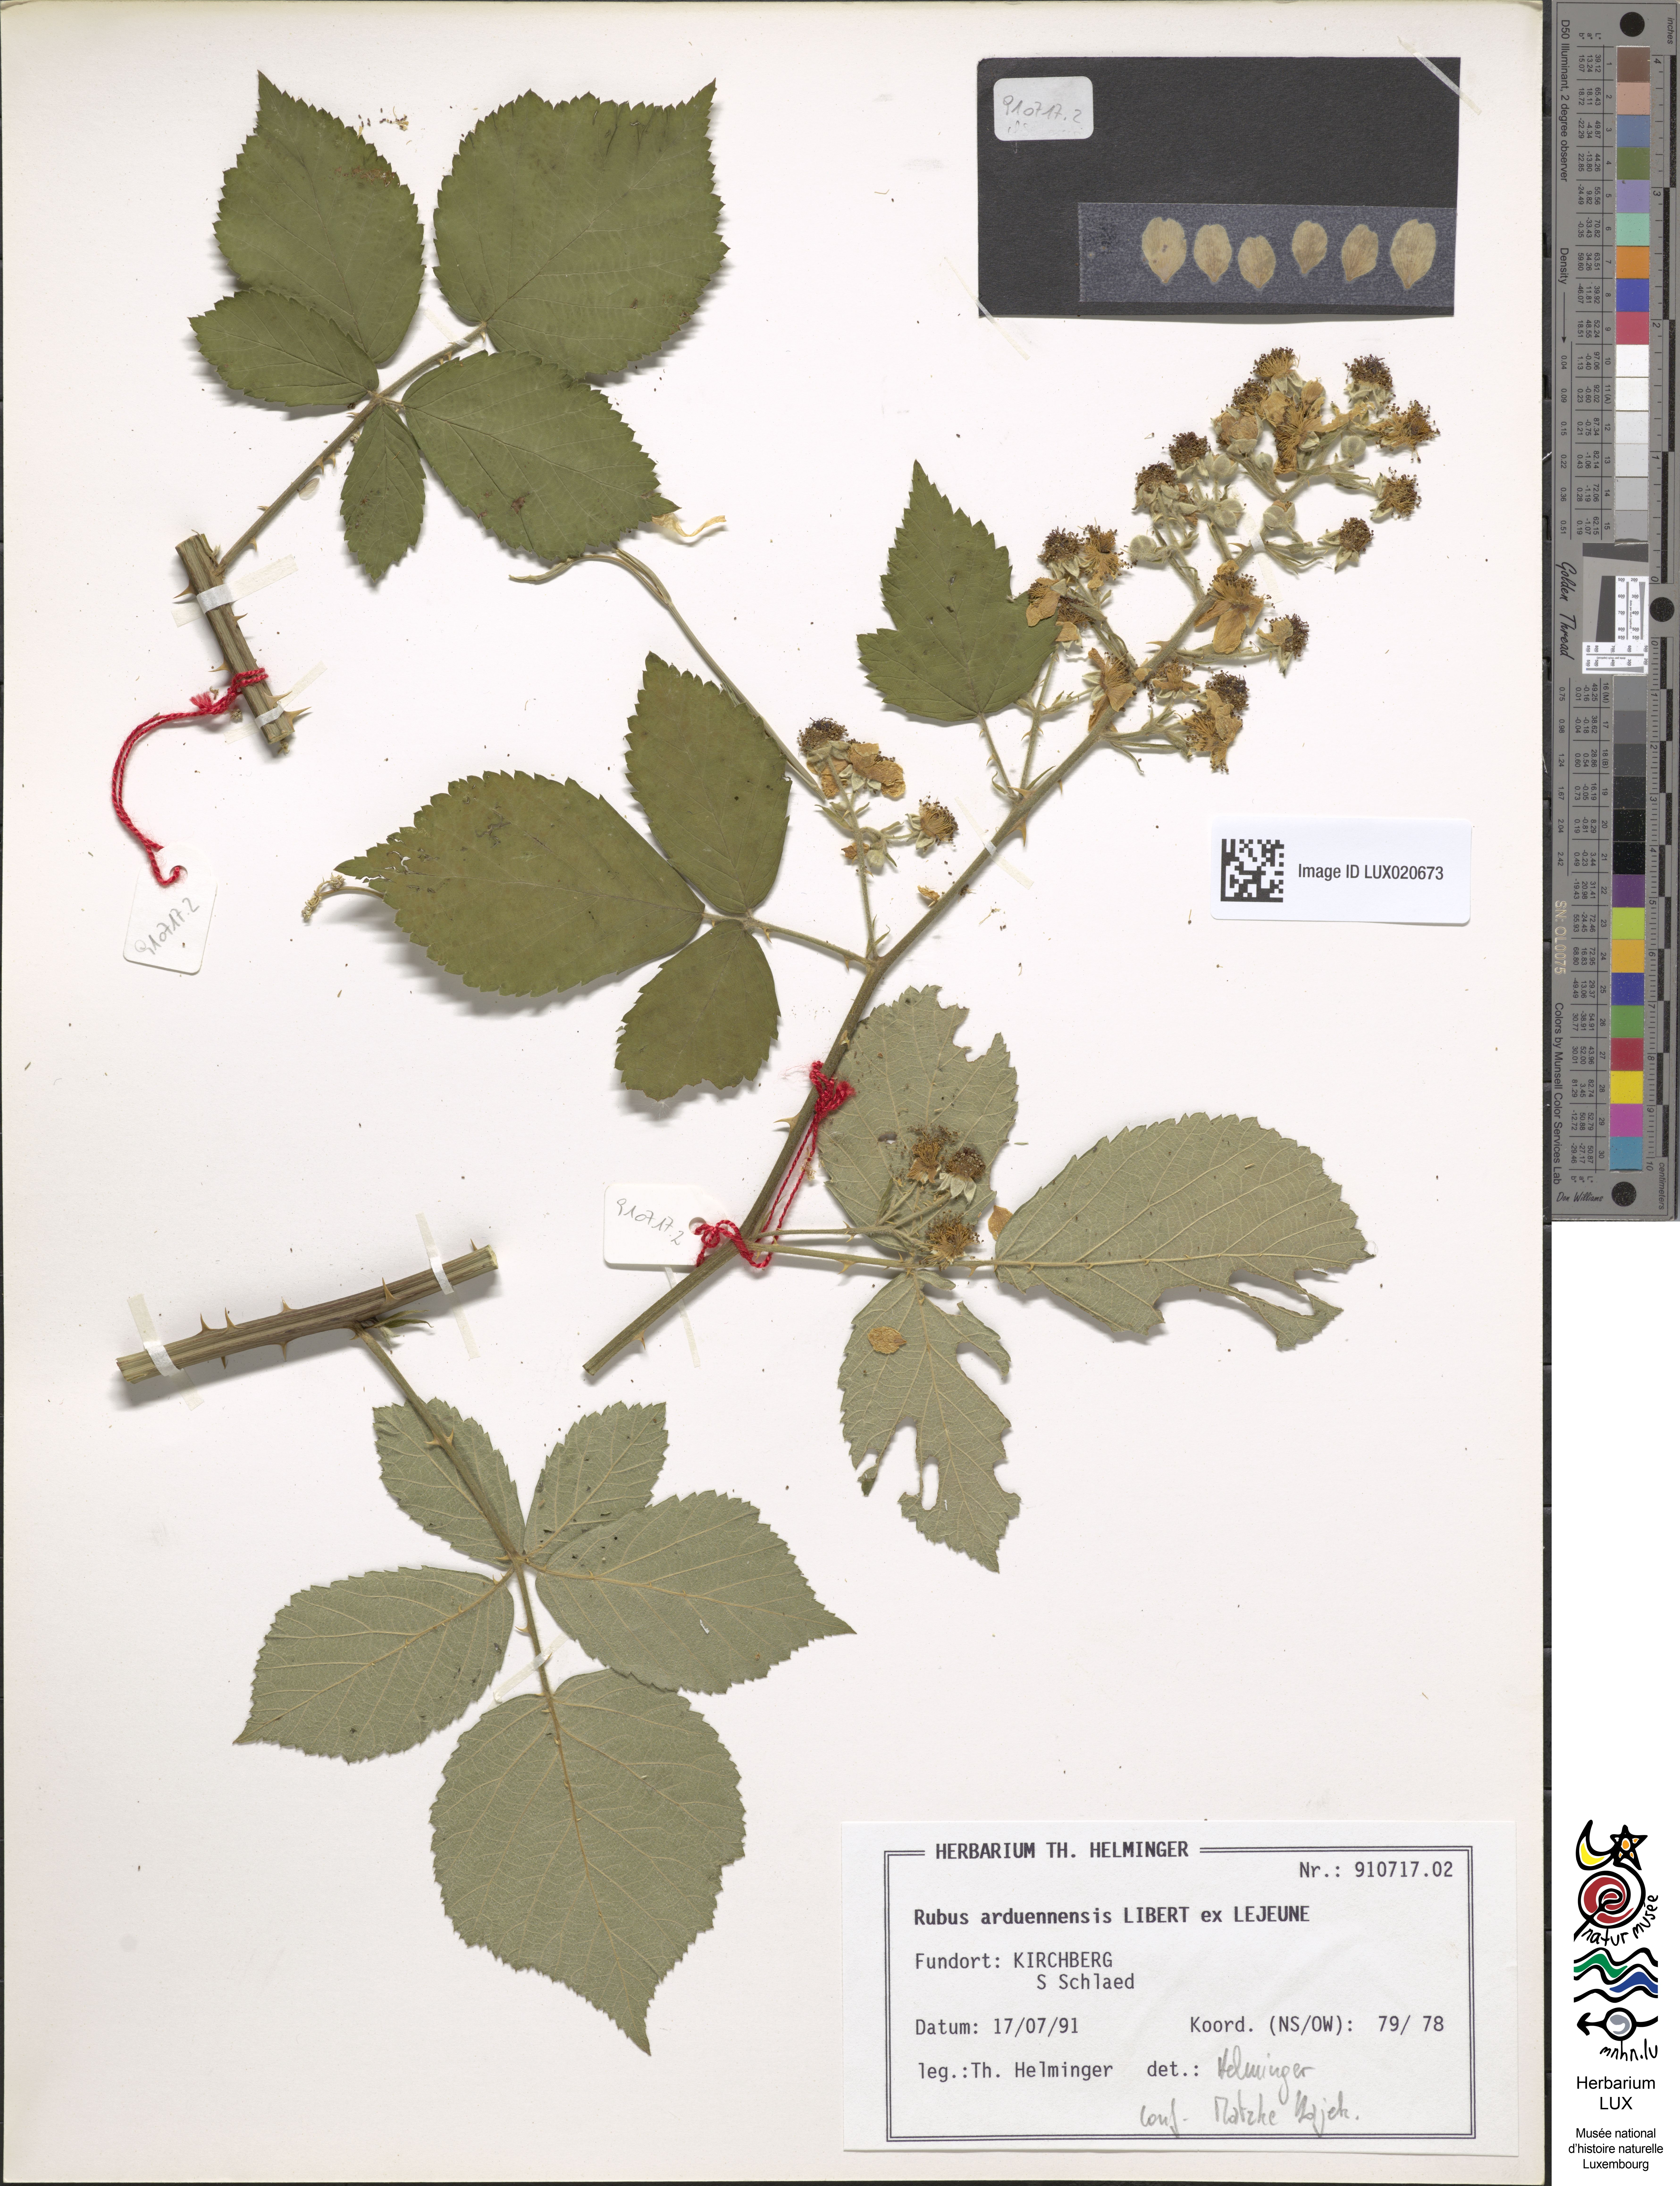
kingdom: Plantae
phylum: Tracheophyta
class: Magnoliopsida
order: Rosales
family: Rosaceae
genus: Rubus
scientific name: Rubus arduennensis
